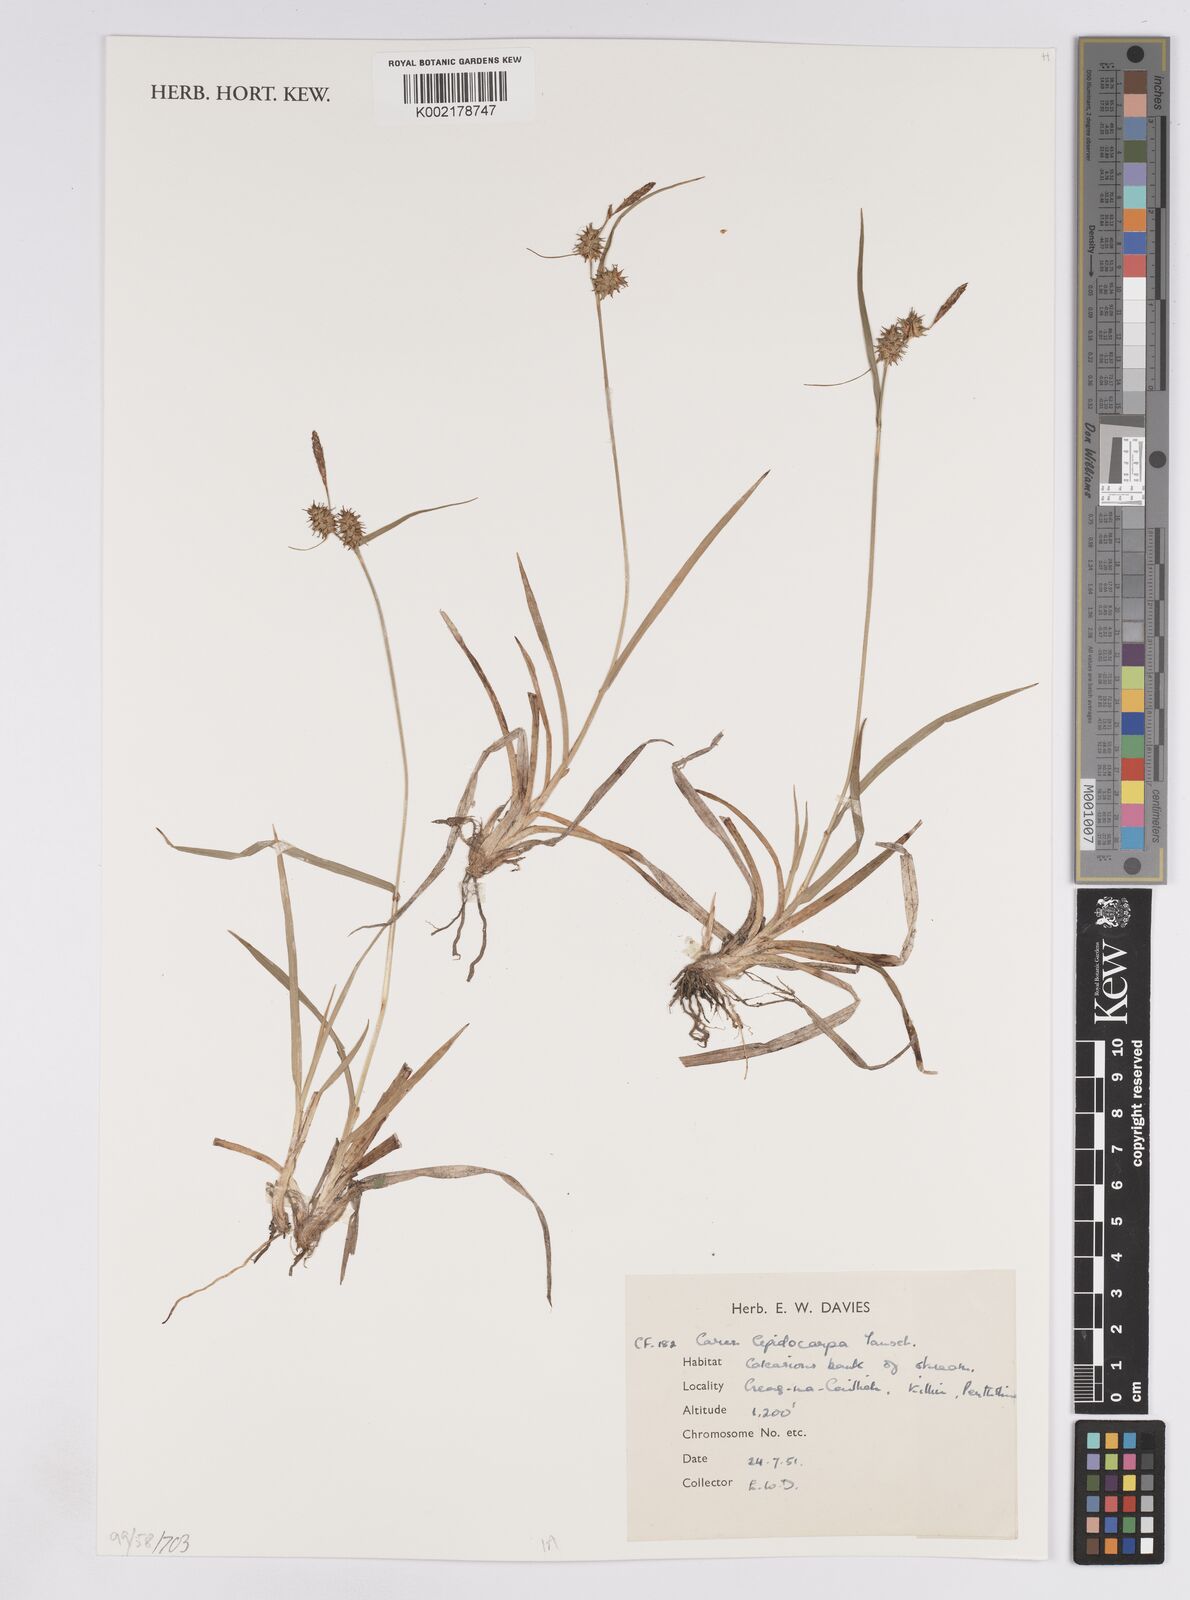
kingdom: Plantae
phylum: Tracheophyta
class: Liliopsida
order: Poales
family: Cyperaceae
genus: Carex
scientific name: Carex lepidocarpa
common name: Long-stalked yellow-sedge
